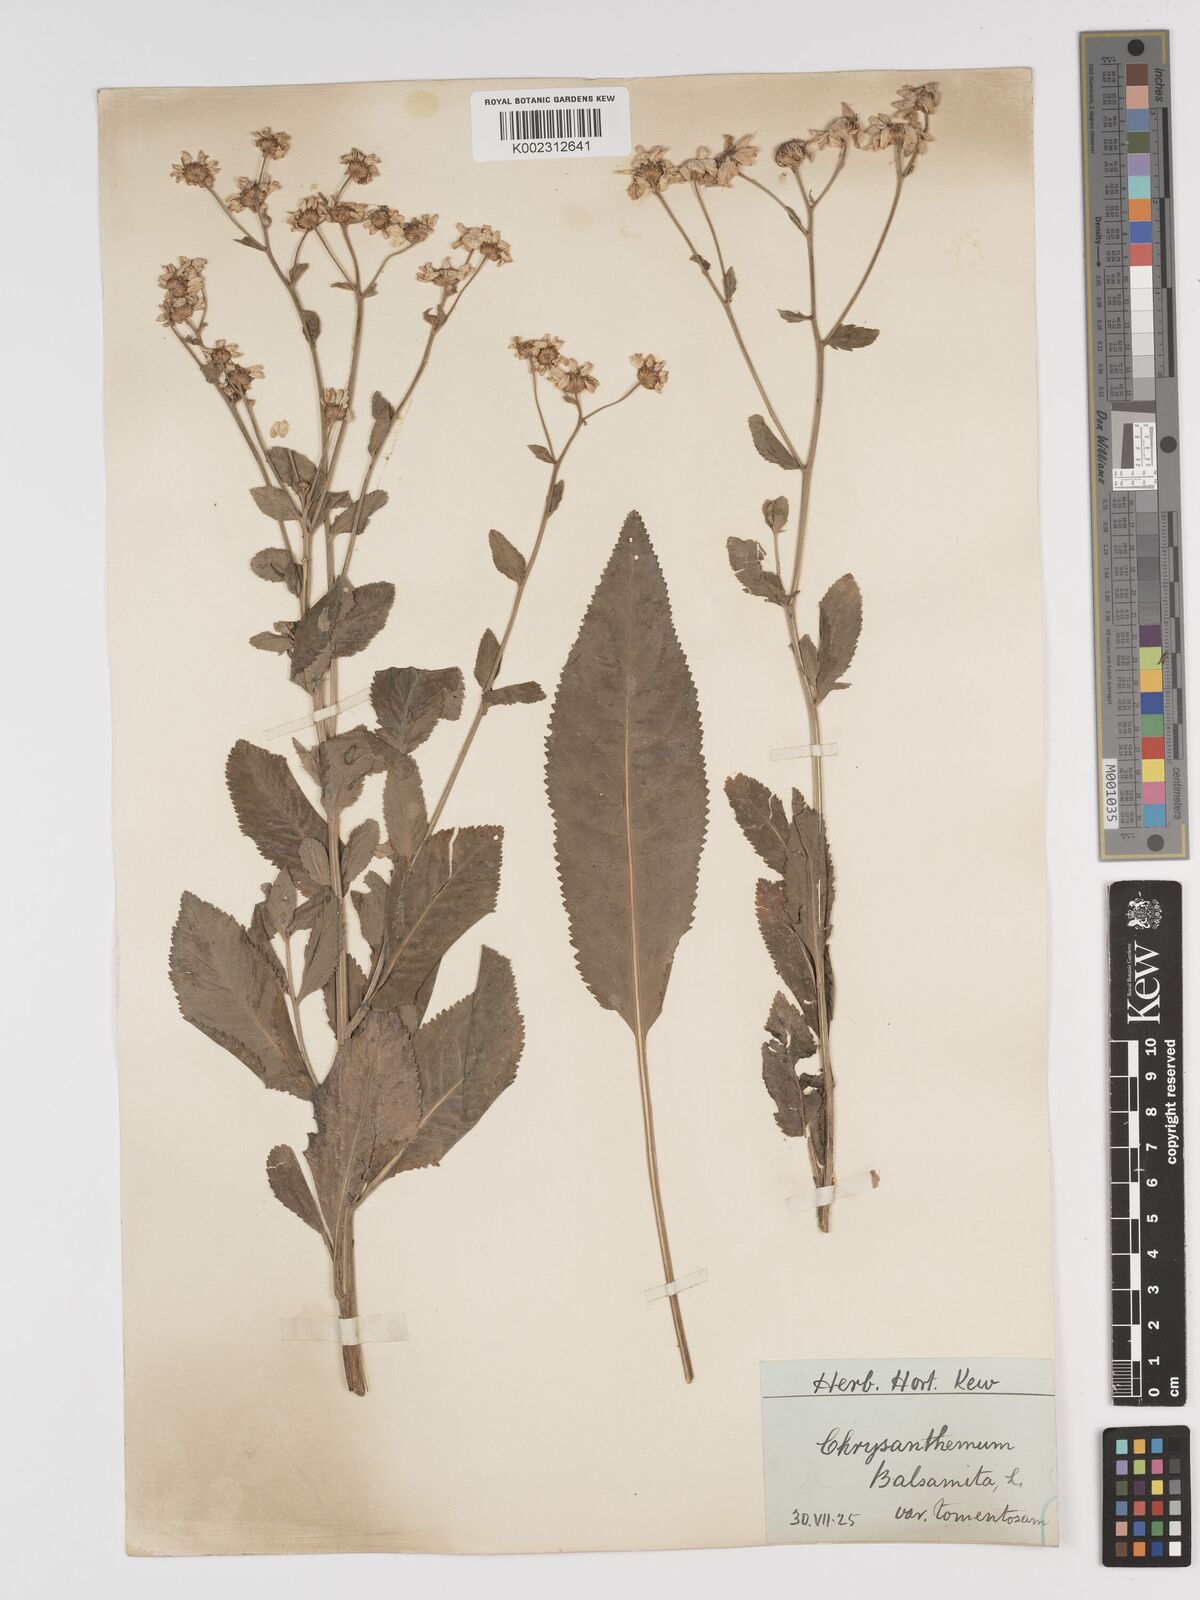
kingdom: Plantae
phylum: Tracheophyta
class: Magnoliopsida
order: Asterales
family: Asteraceae
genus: Tanacetum
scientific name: Tanacetum balsamita
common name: Costmary
